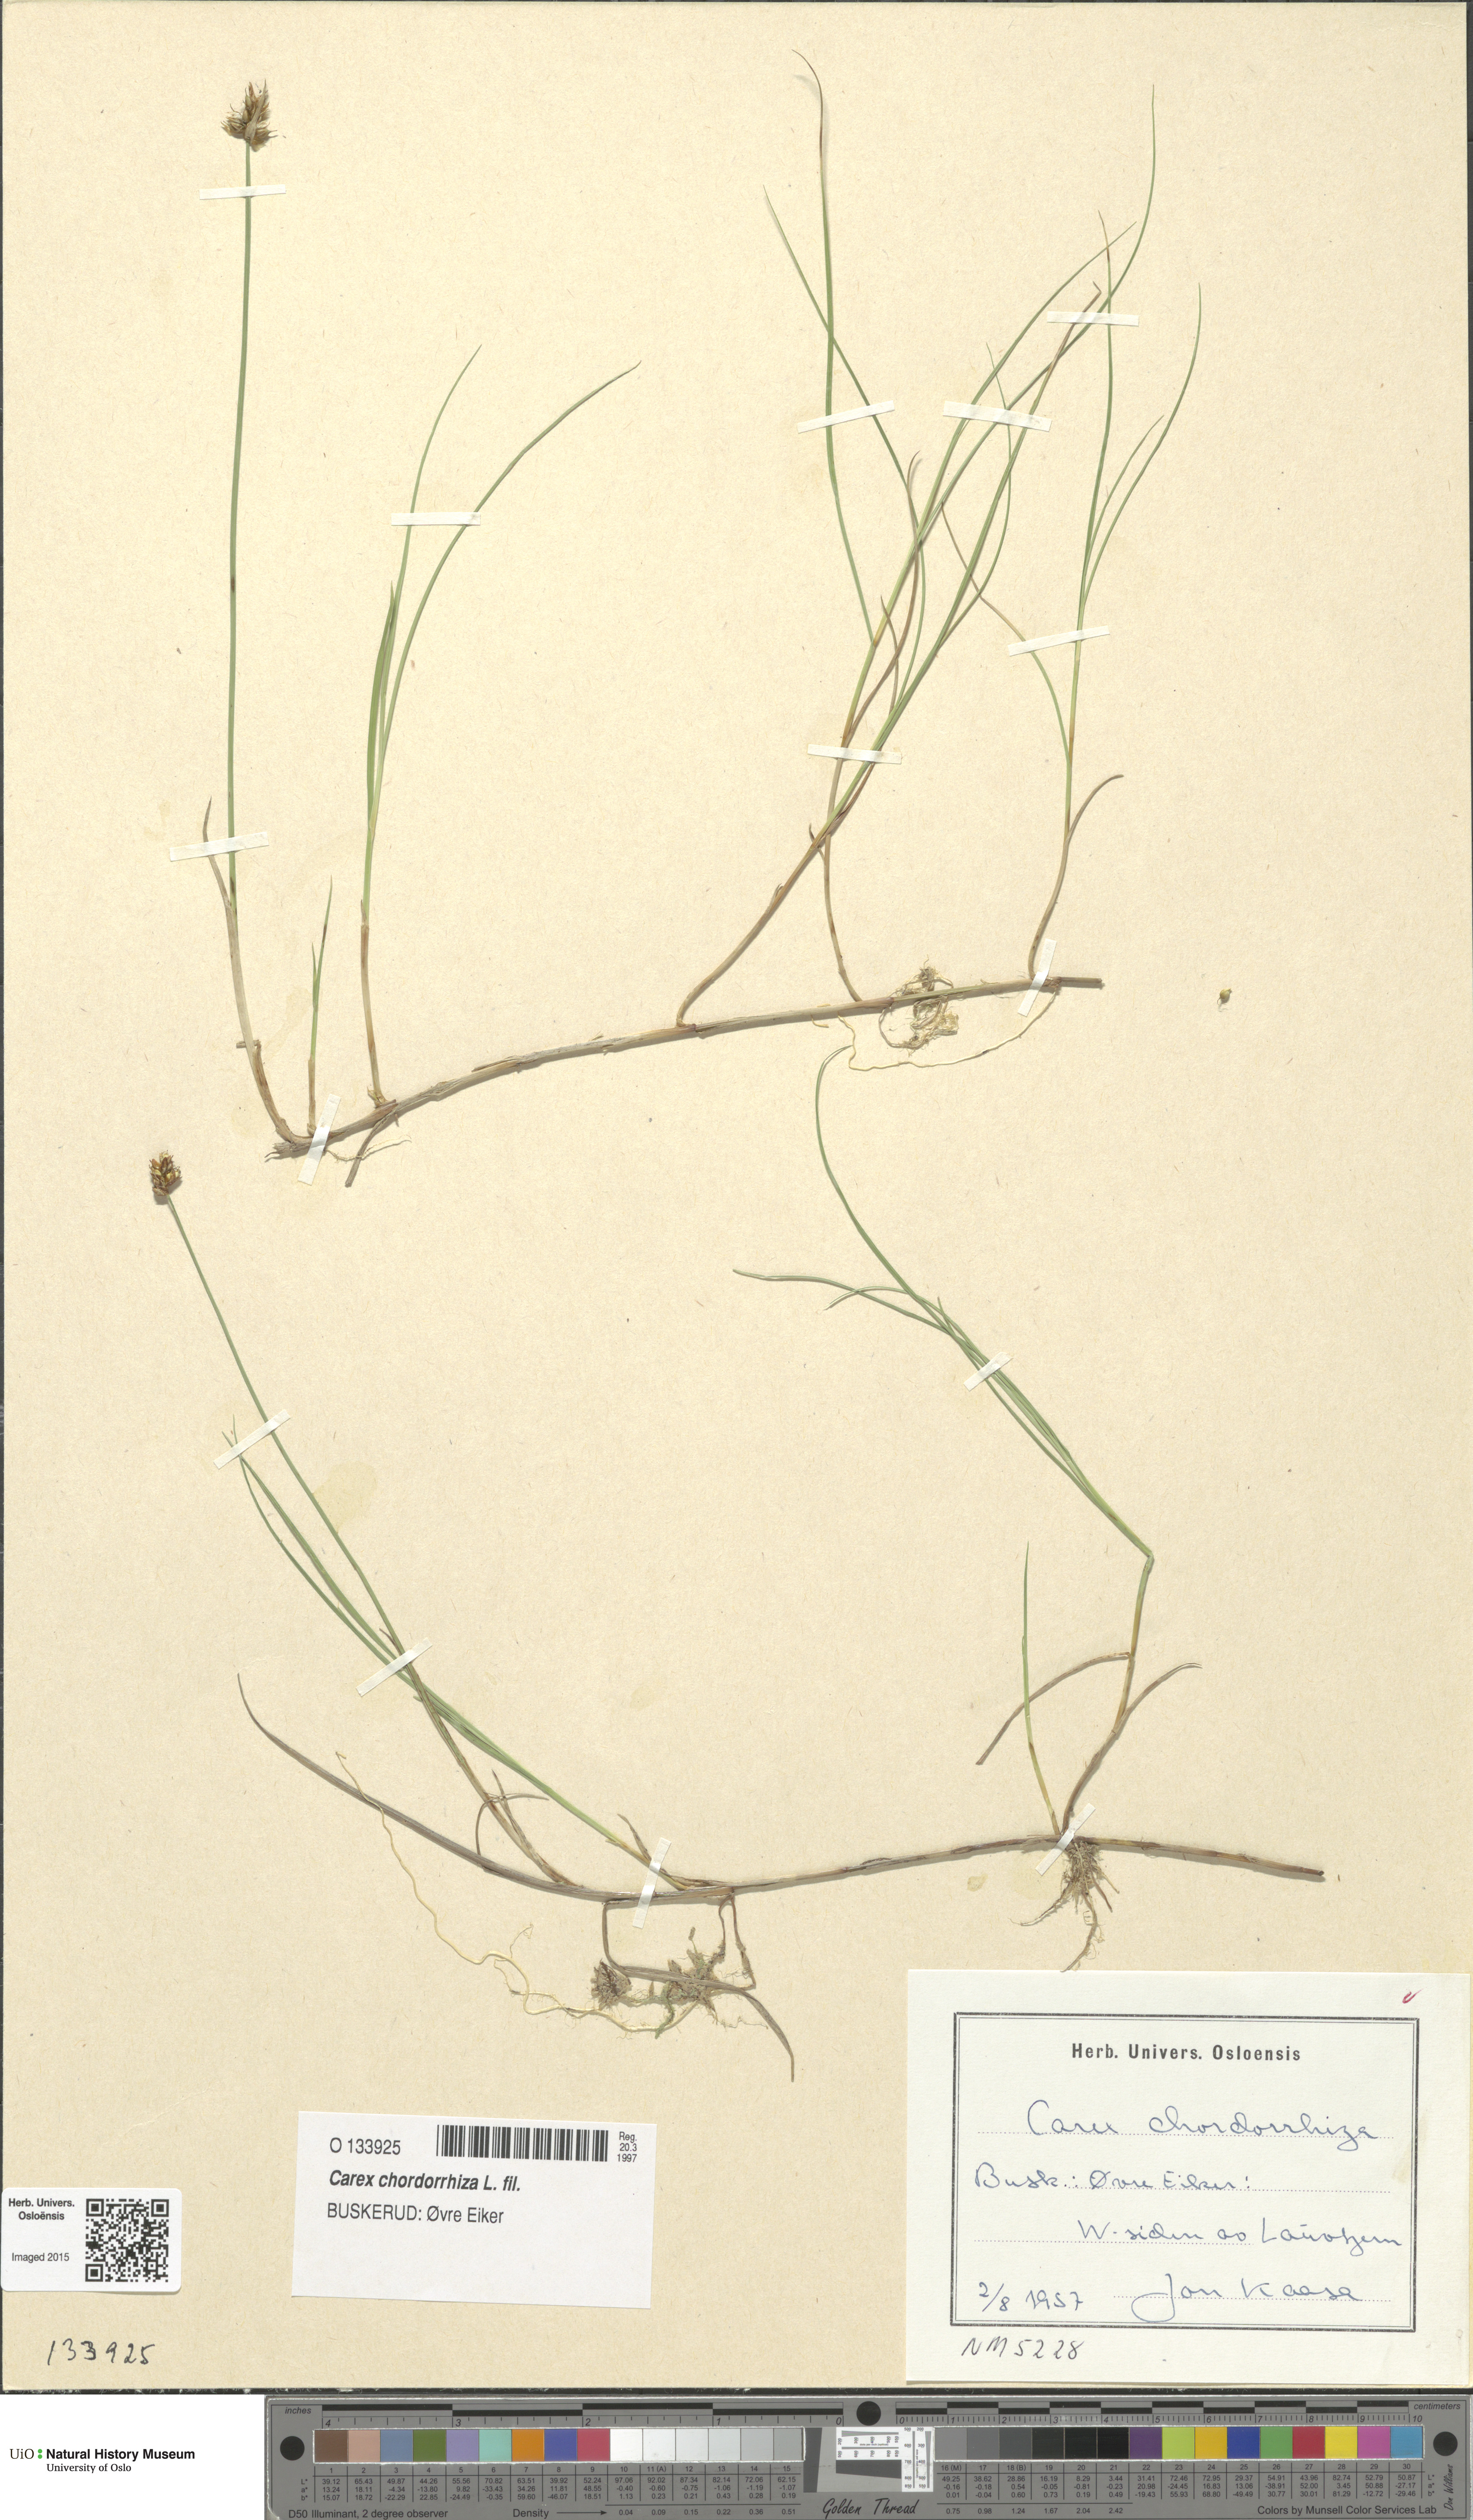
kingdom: Plantae
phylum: Tracheophyta
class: Liliopsida
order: Poales
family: Cyperaceae
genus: Carex
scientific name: Carex chordorrhiza
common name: String sedge
